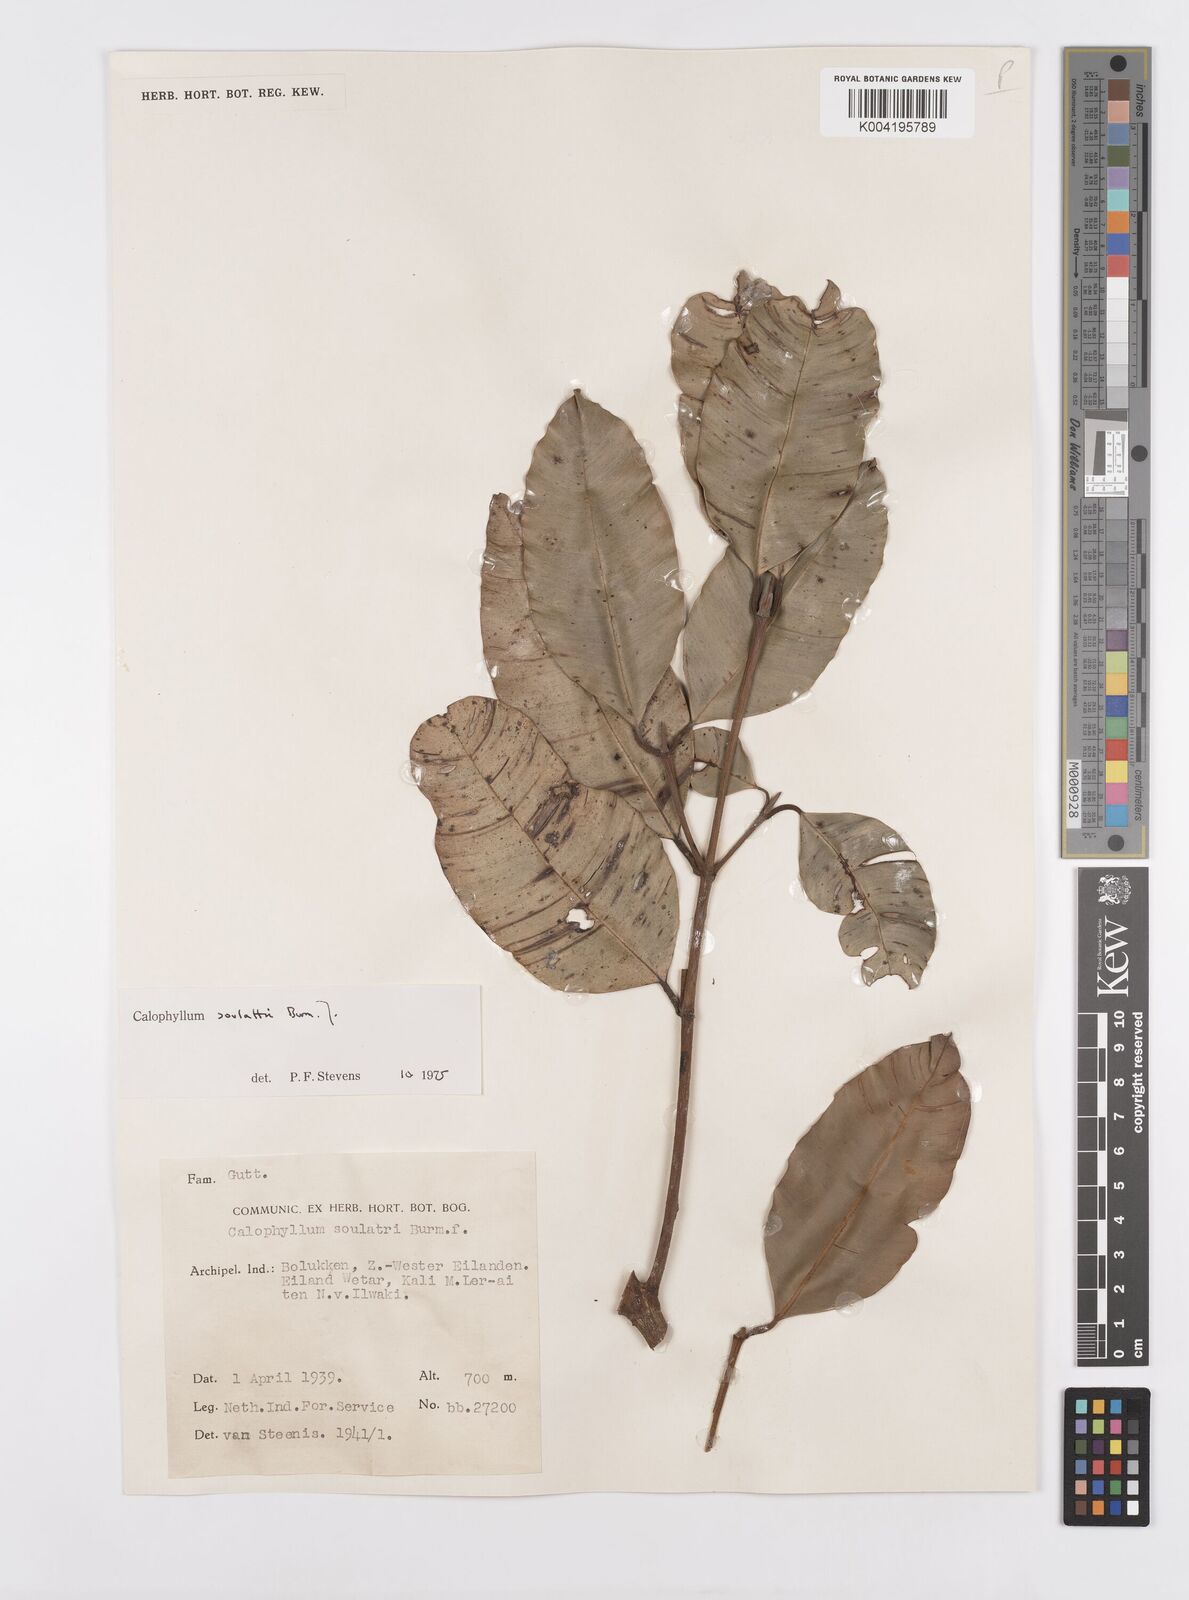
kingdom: Plantae
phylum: Tracheophyta
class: Magnoliopsida
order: Malpighiales
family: Calophyllaceae
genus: Calophyllum
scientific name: Calophyllum soulattri
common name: Bitangoor boonot
